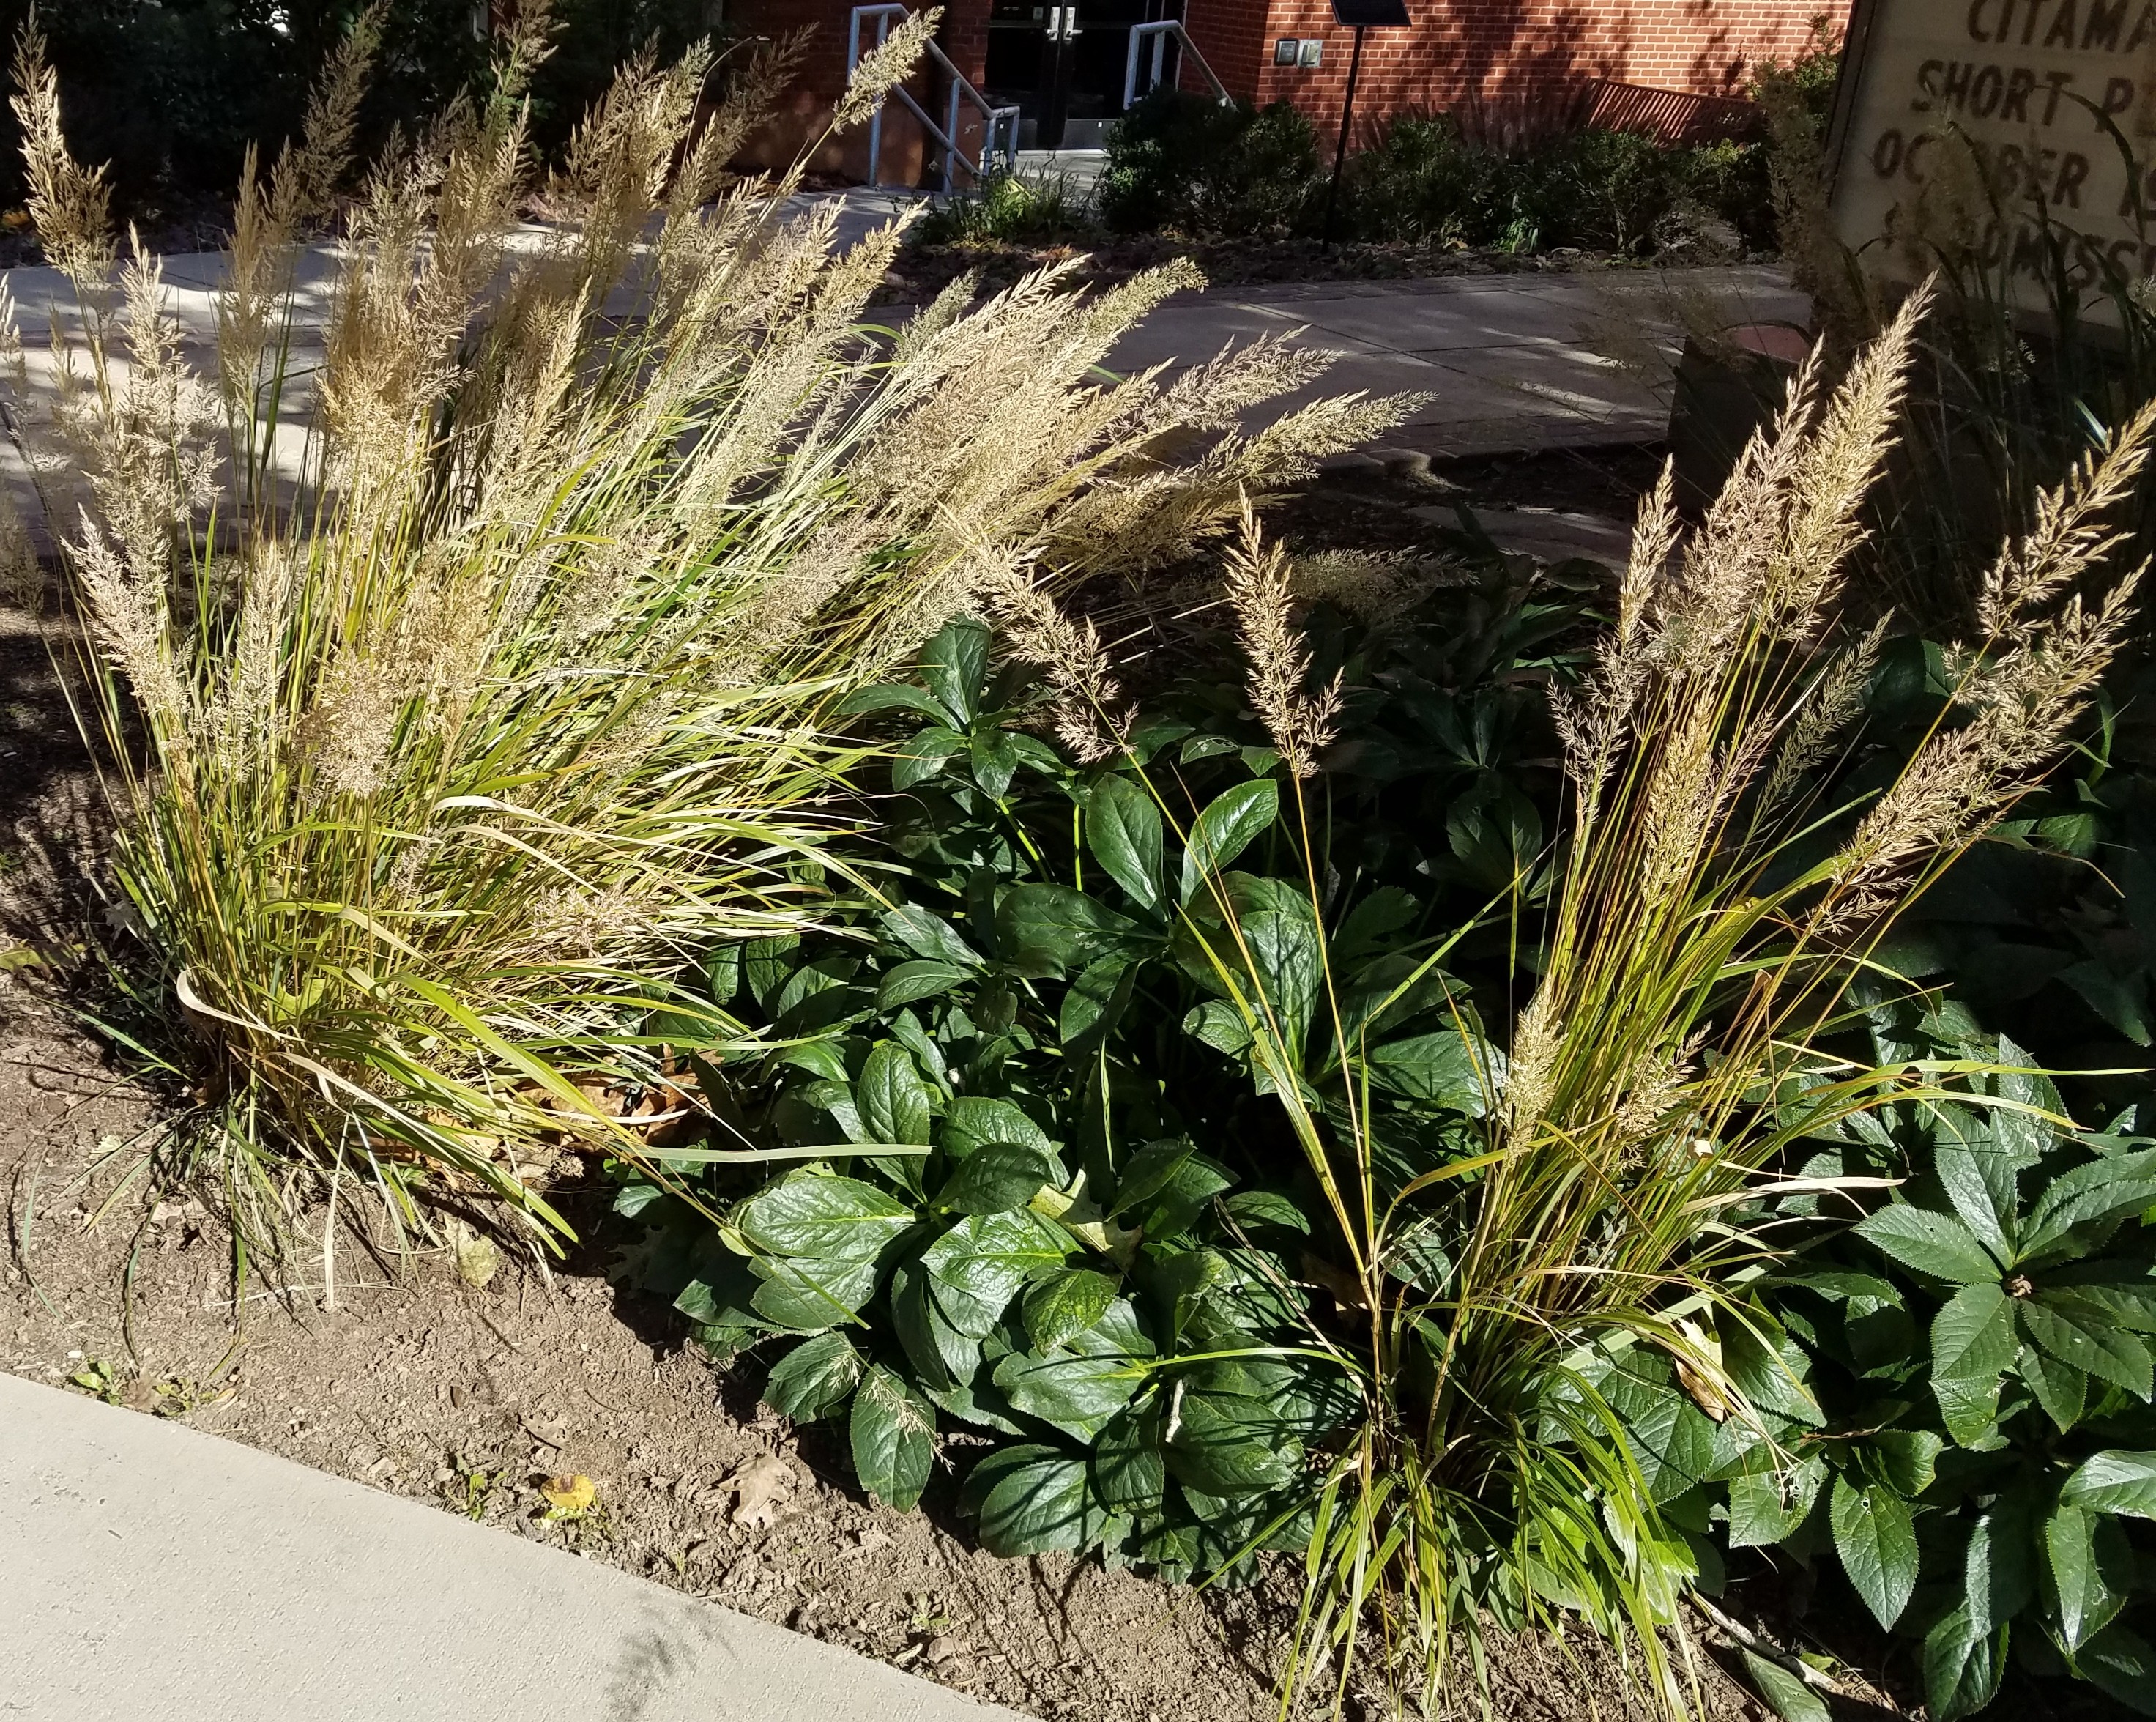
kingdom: Plantae
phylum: Tracheophyta
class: Liliopsida
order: Poales
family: Poaceae
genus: Calamagrostis
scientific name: Calamagrostis arundinacea
